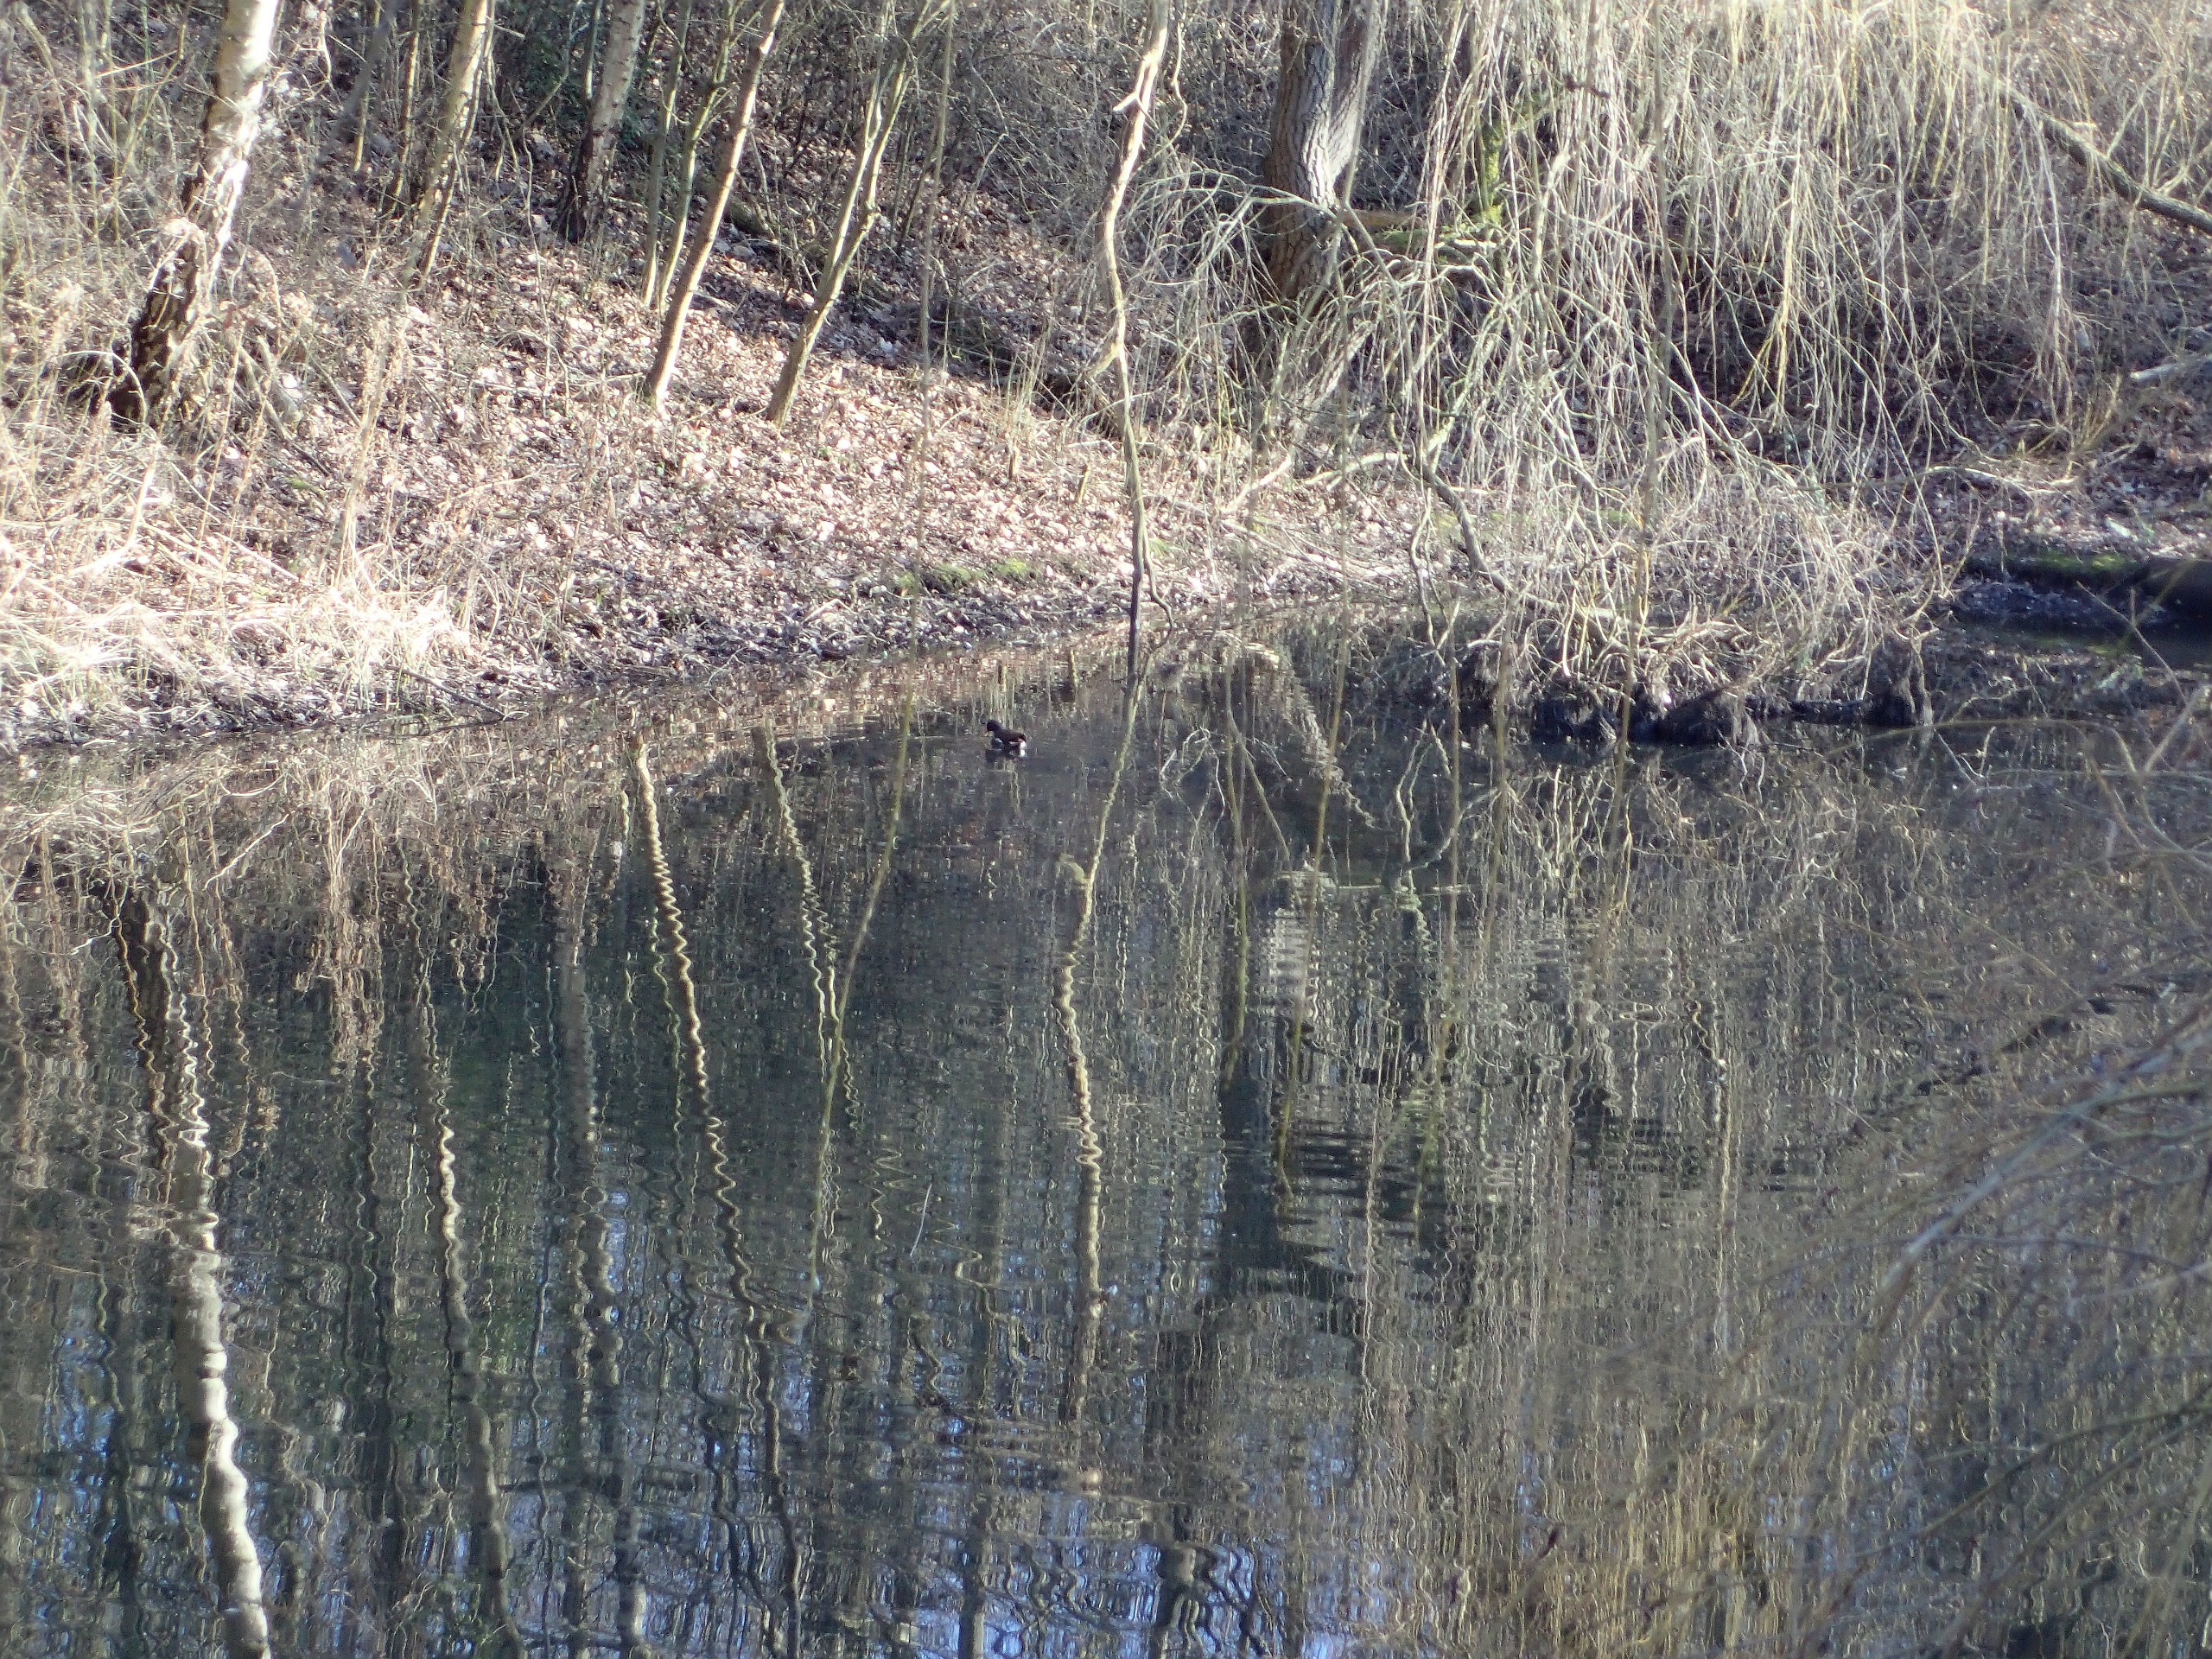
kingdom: Animalia
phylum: Chordata
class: Aves
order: Gruiformes
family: Rallidae
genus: Gallinula
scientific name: Gallinula chloropus
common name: Grønbenet rørhøne
